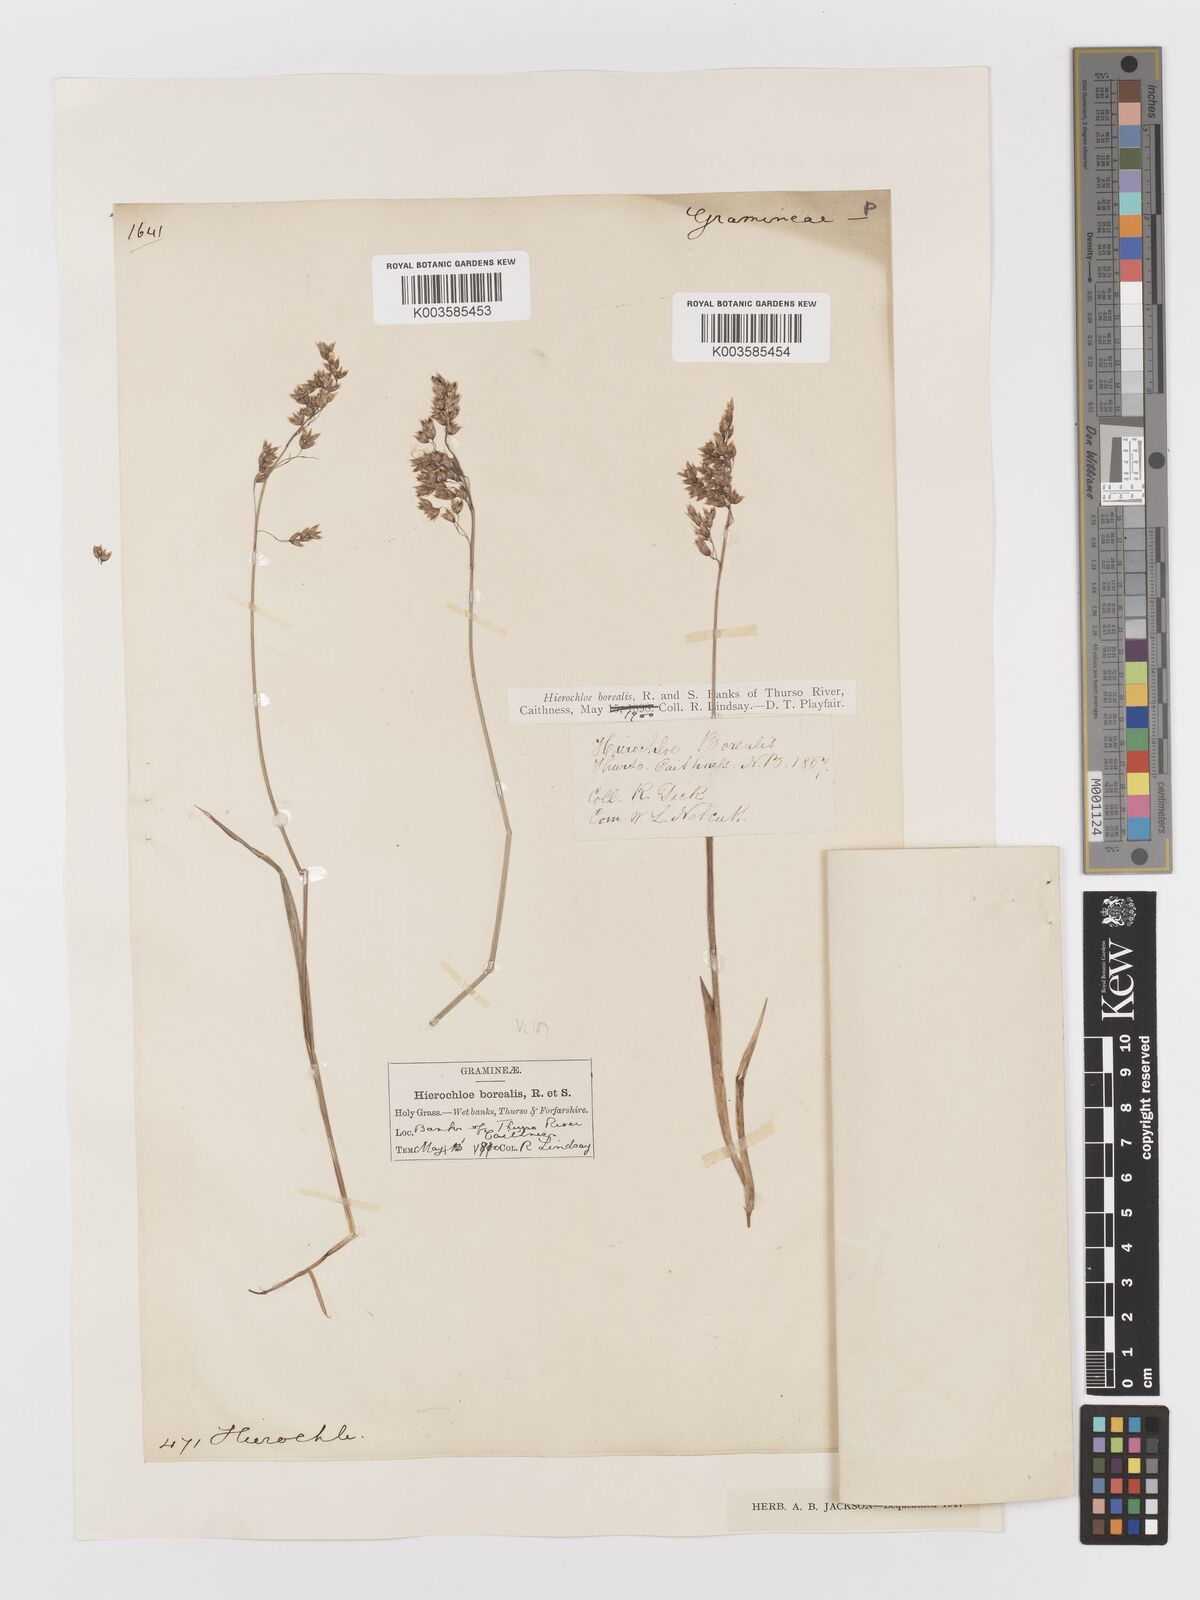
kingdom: Plantae
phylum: Tracheophyta
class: Liliopsida
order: Poales
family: Poaceae
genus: Anthoxanthum
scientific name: Anthoxanthum nitens
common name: Holy grass
